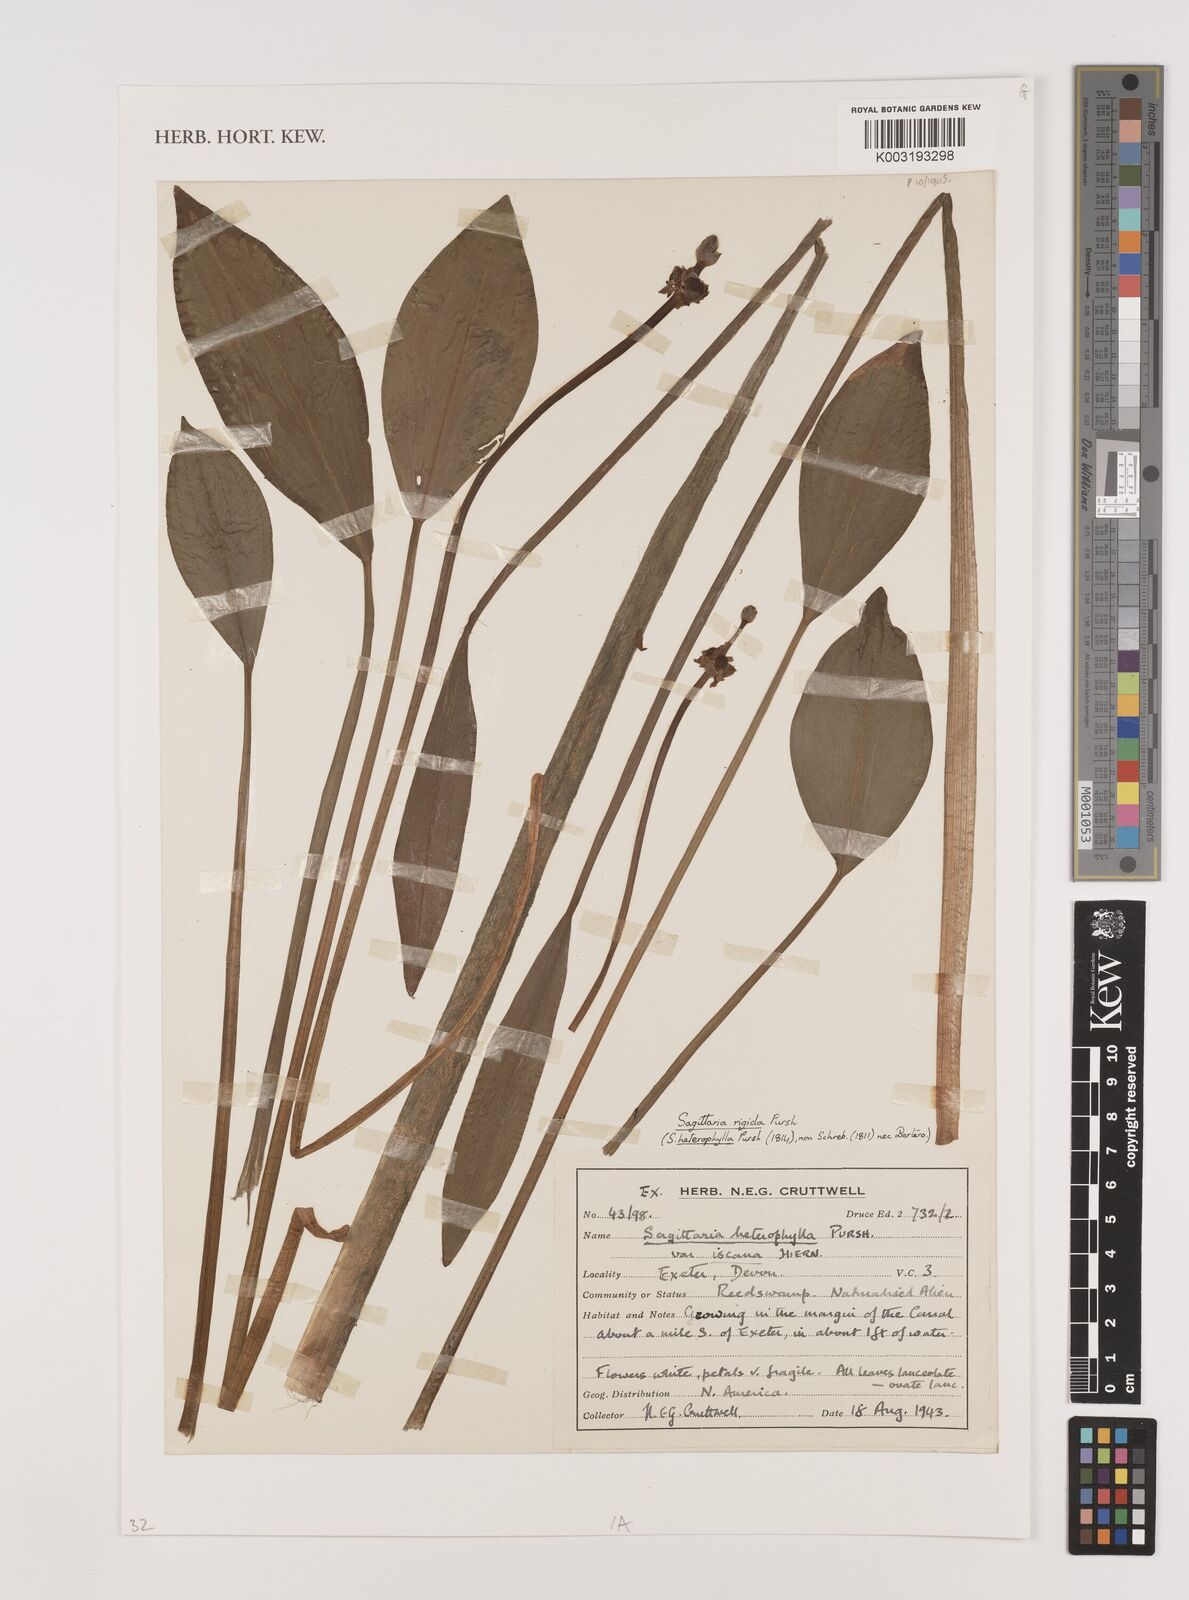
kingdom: Plantae
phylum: Tracheophyta
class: Liliopsida
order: Alismatales
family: Alismataceae
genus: Sagittaria
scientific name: Sagittaria rigida
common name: Canadian arrowhead
